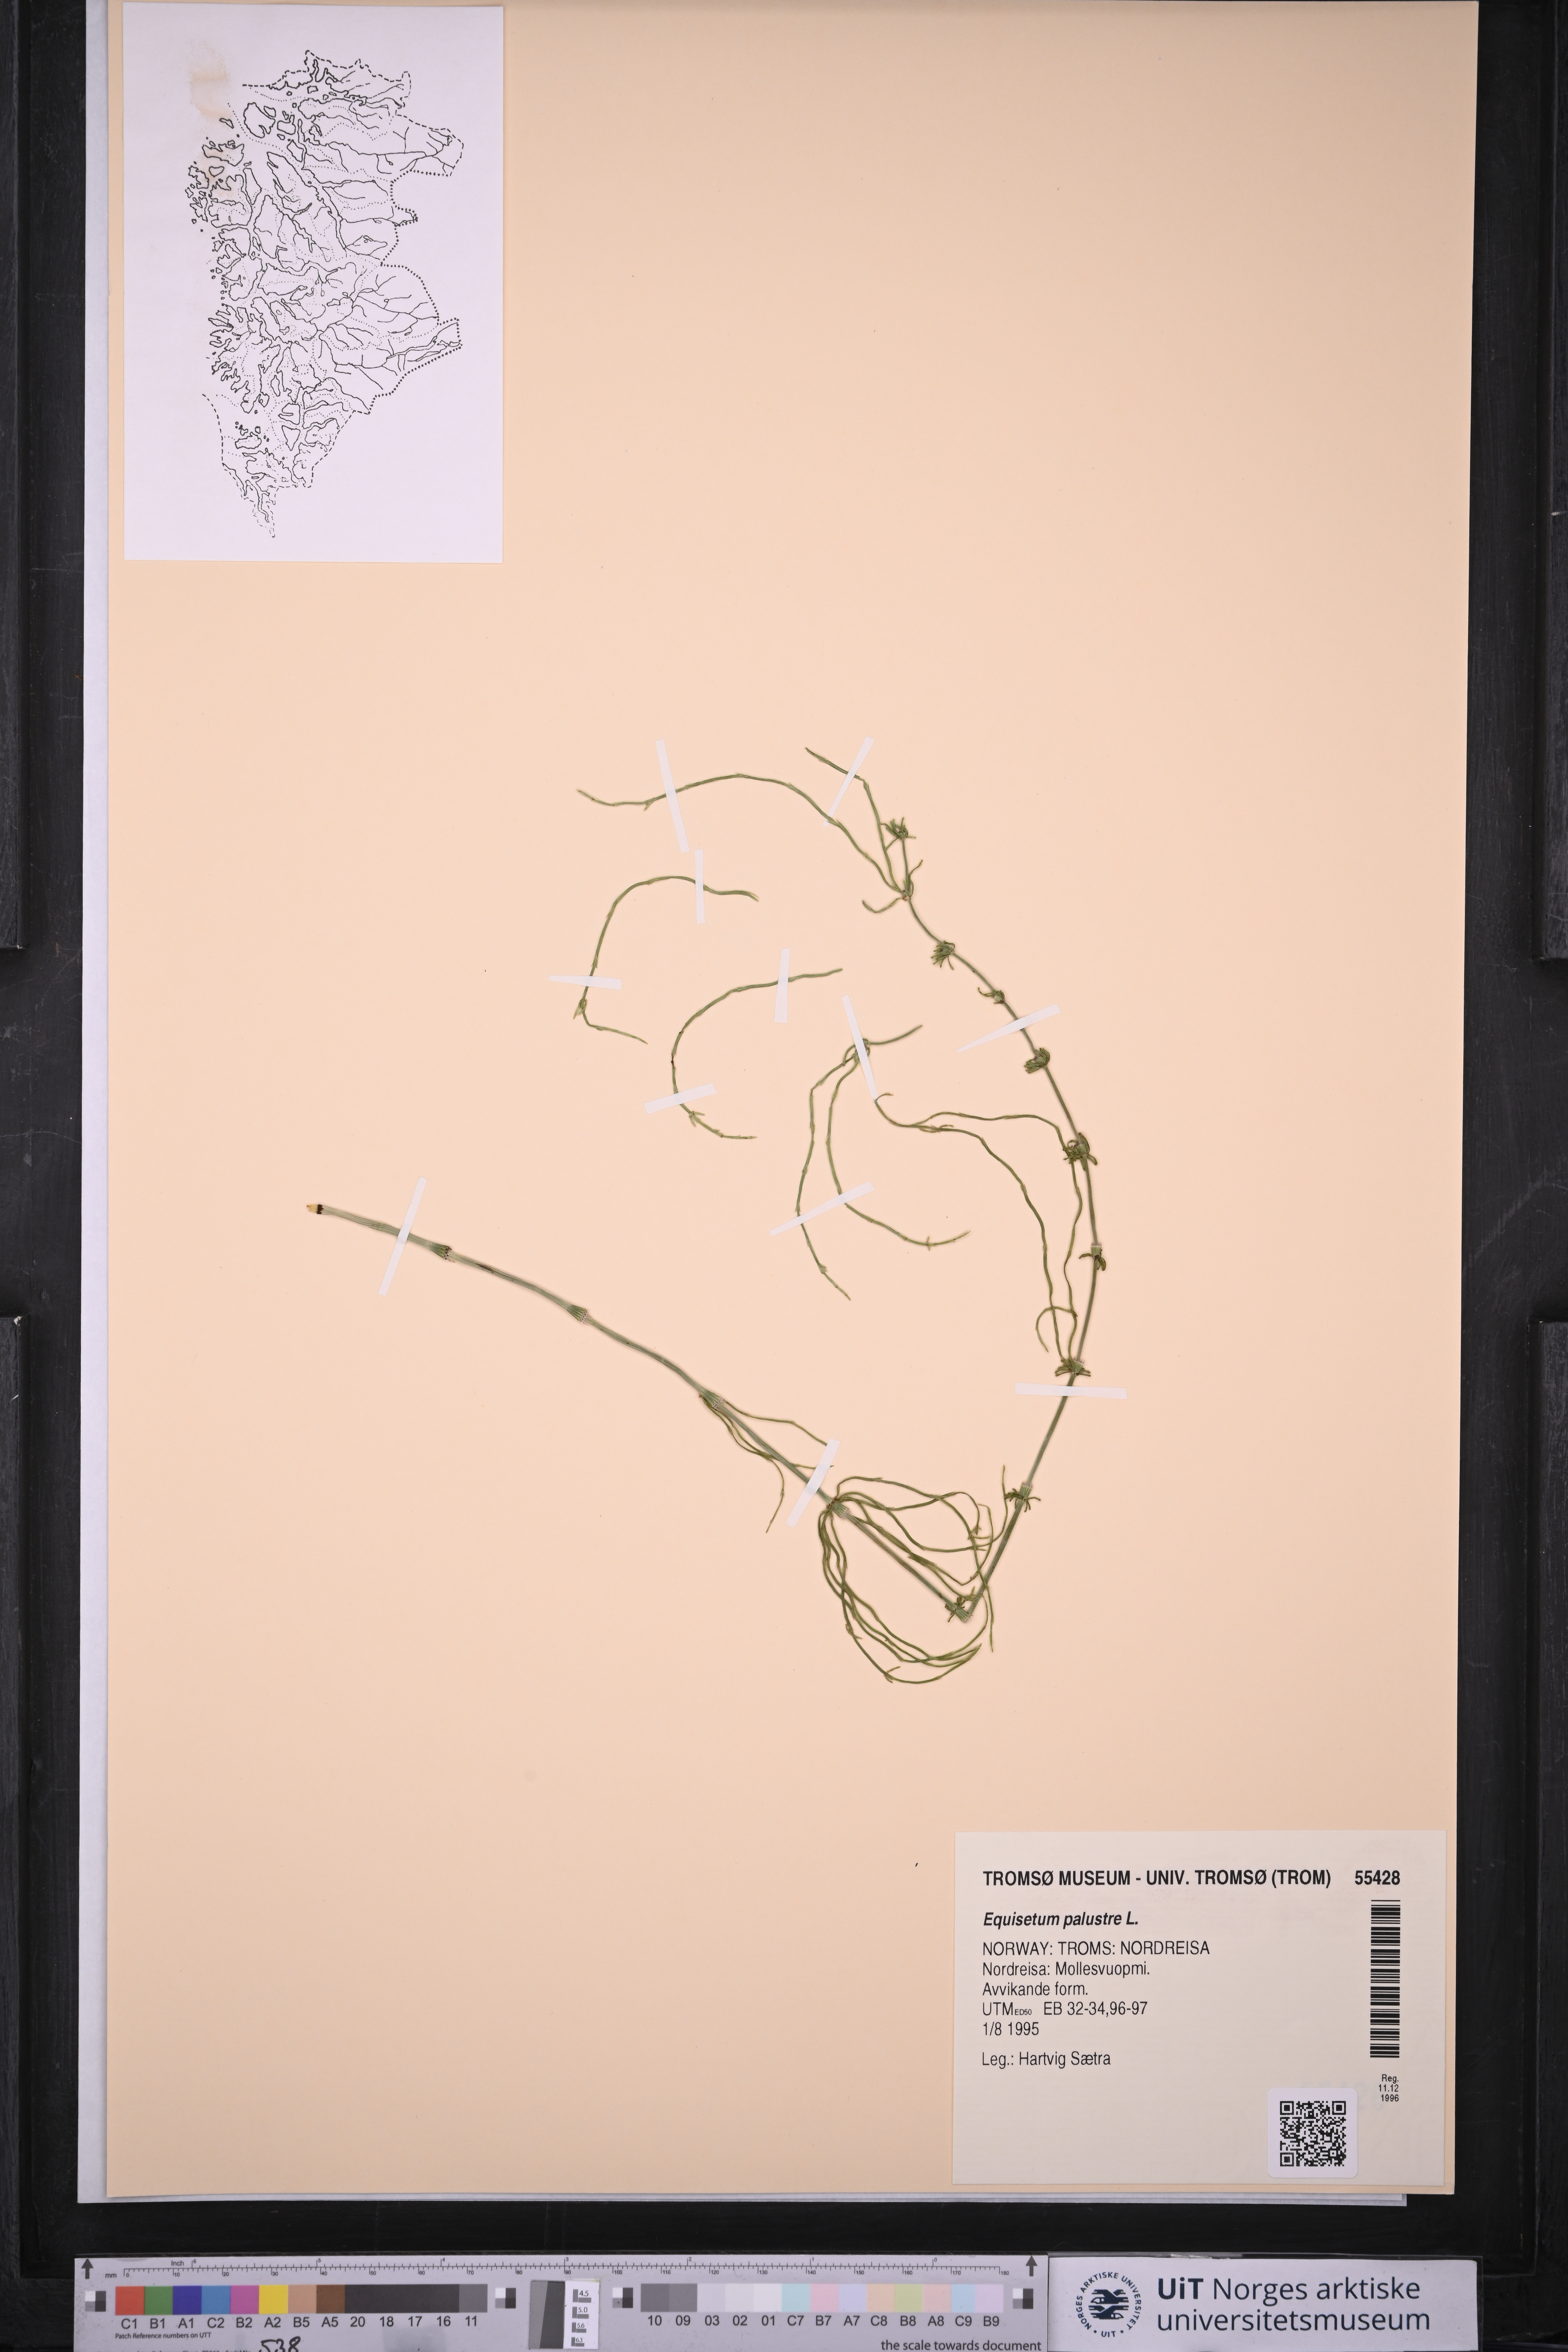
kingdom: Plantae
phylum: Tracheophyta
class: Polypodiopsida
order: Equisetales
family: Equisetaceae
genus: Equisetum
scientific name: Equisetum palustre
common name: Marsh horsetail
